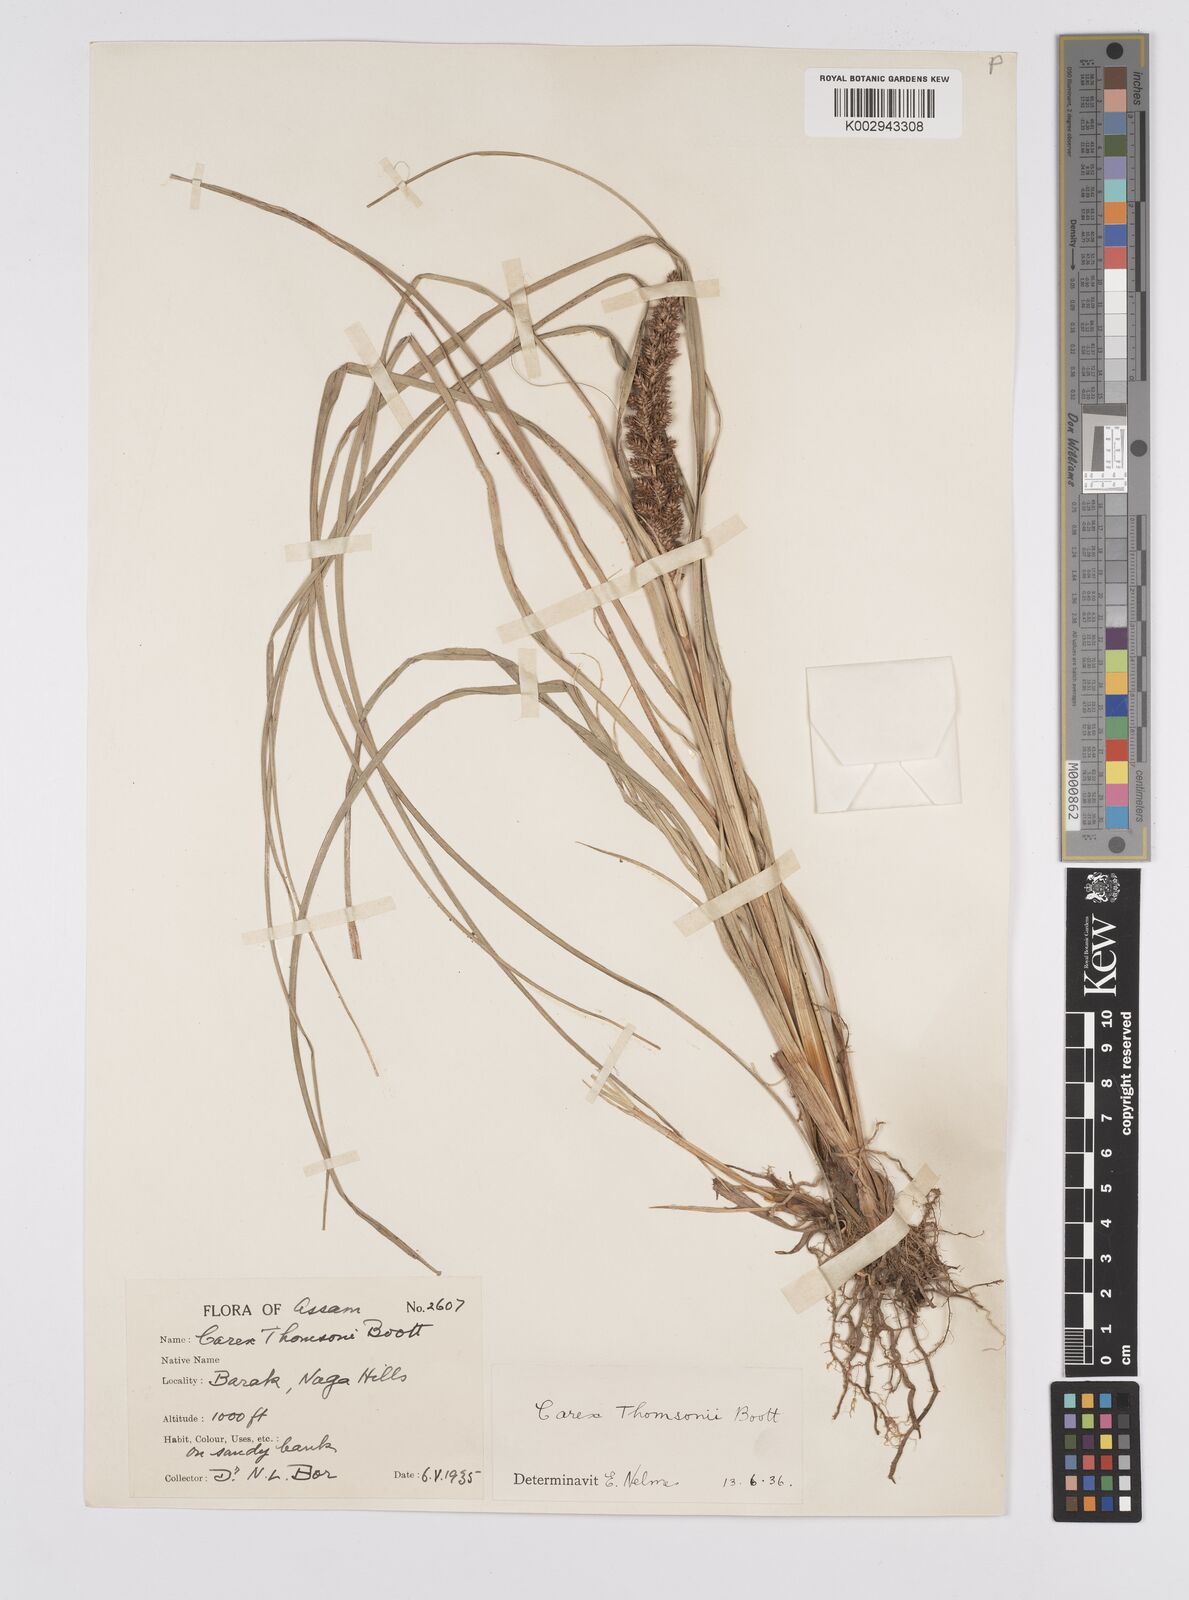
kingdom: Plantae
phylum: Tracheophyta
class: Liliopsida
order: Poales
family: Cyperaceae
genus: Carex
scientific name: Carex thomsonii
